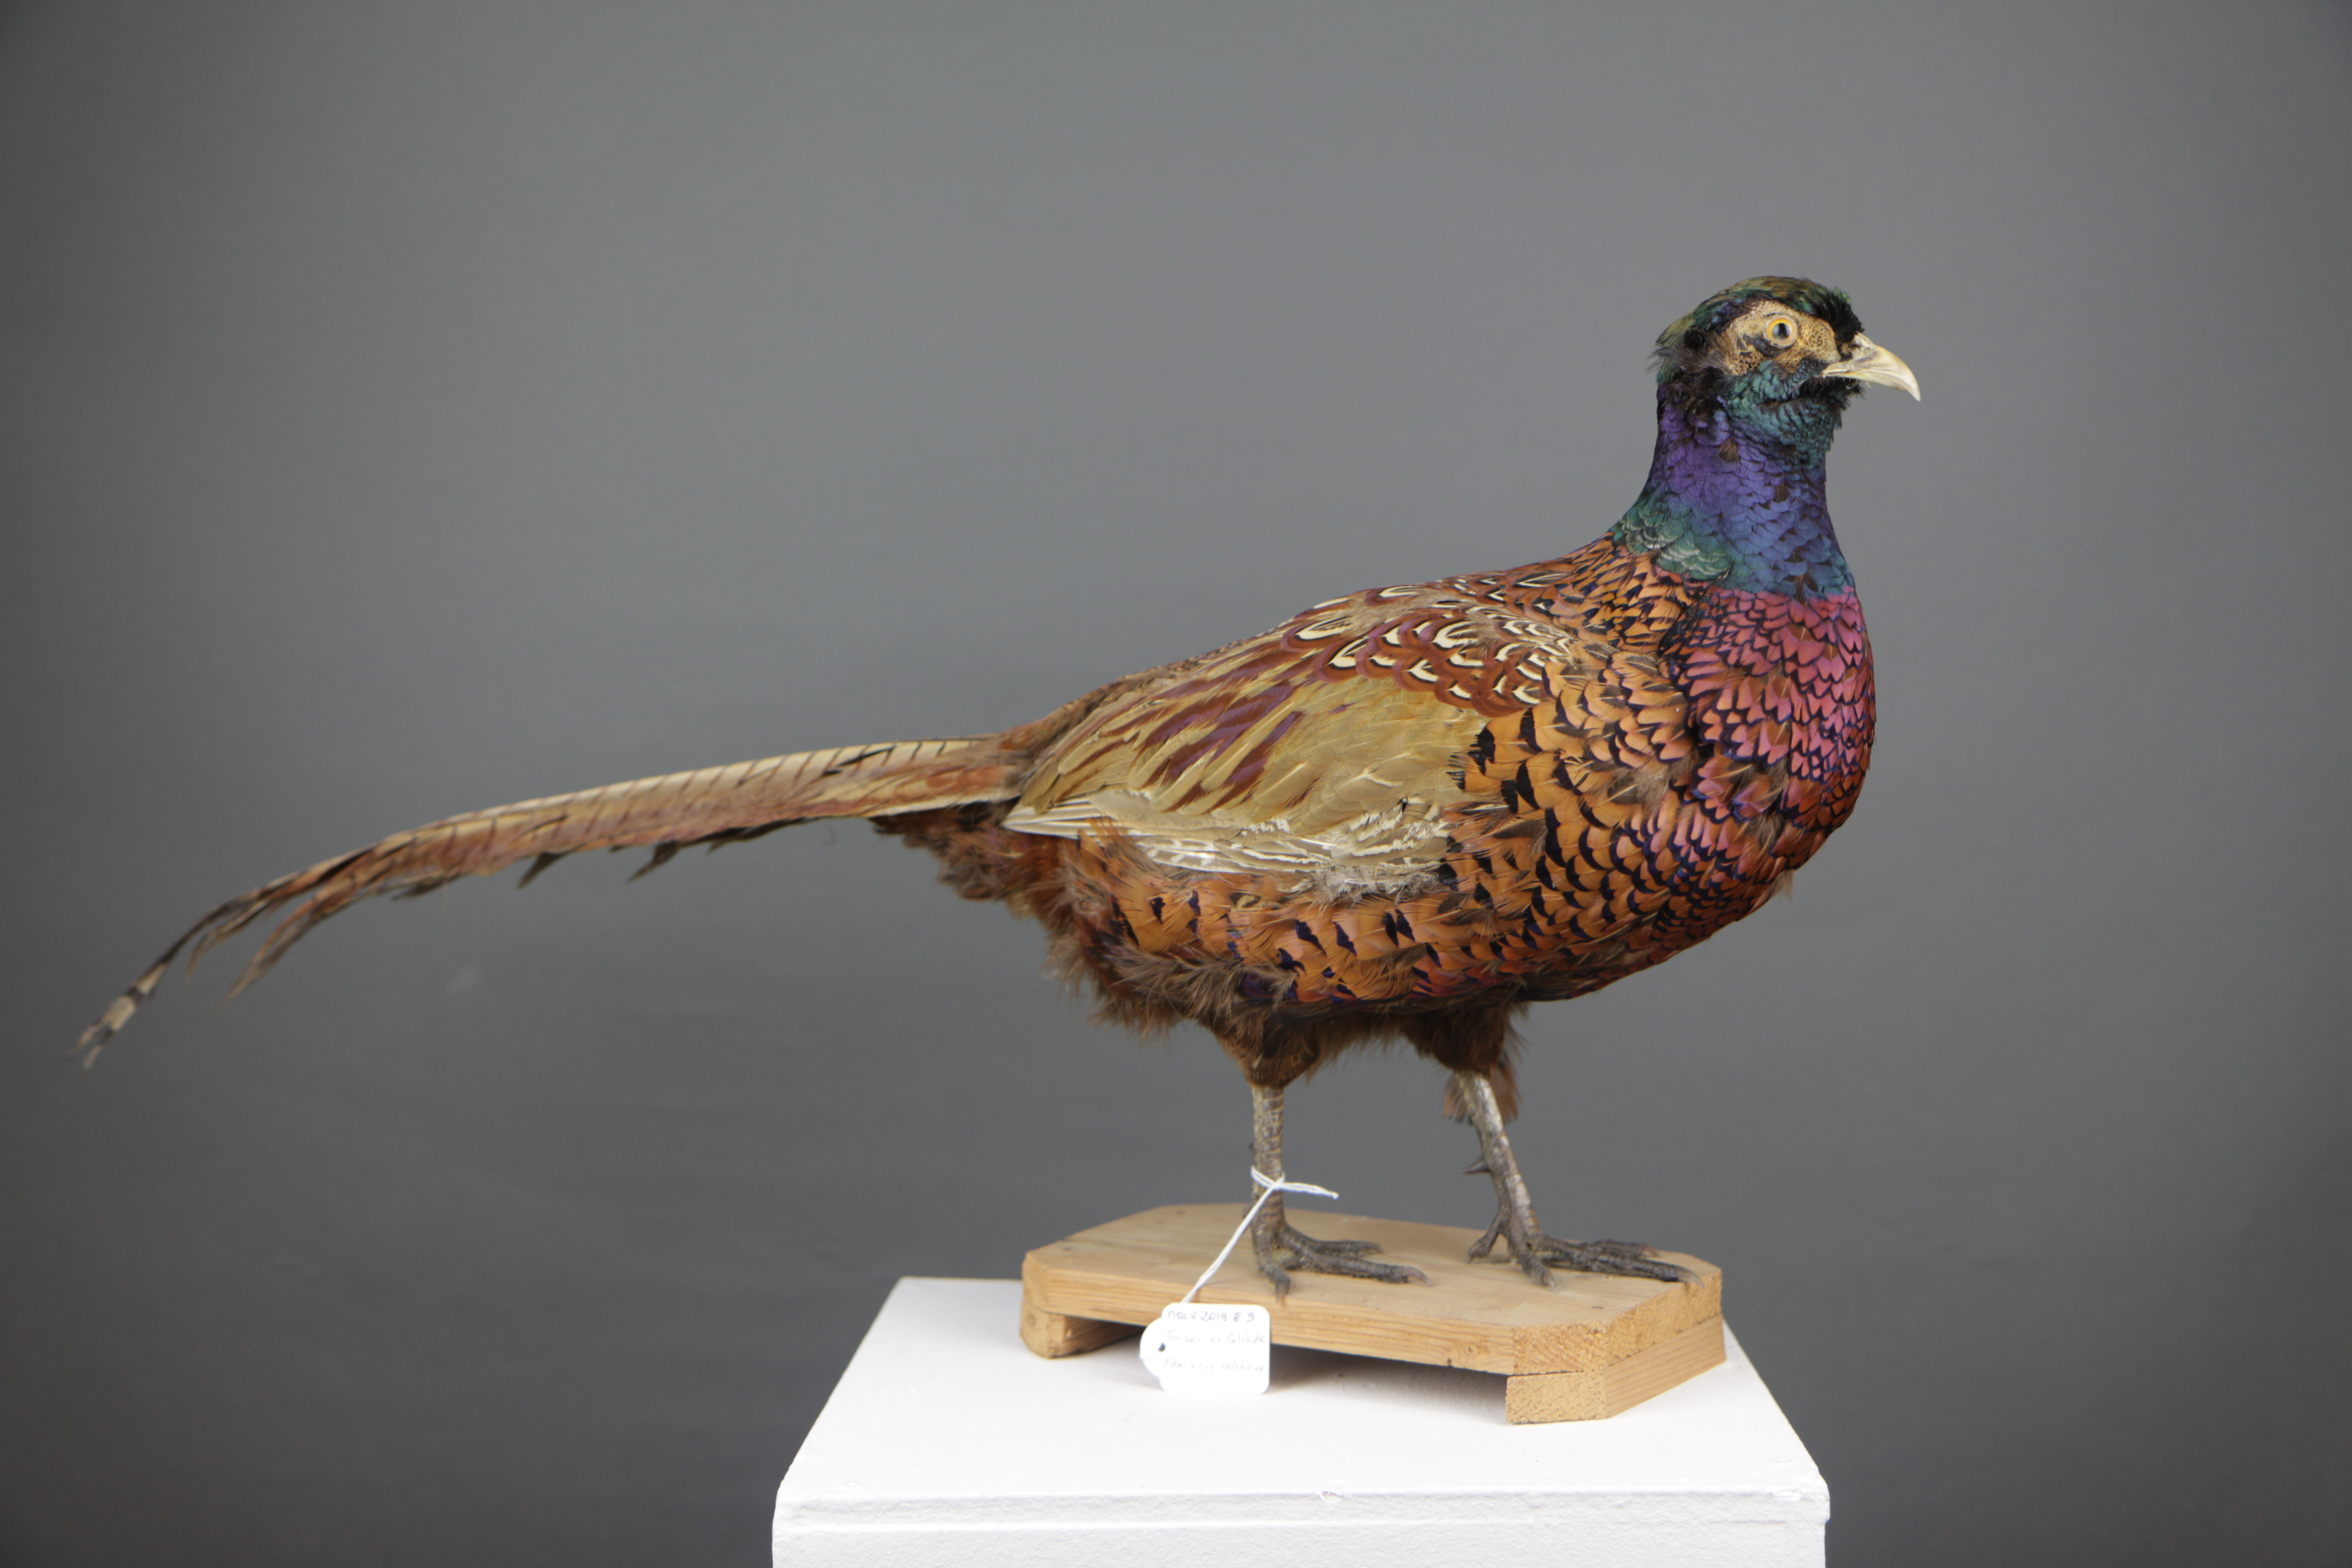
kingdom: Animalia
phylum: Chordata
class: Aves
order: Galliformes
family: Phasianidae
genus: Phasianus
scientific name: Phasianus colchicus
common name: Common pheasant
